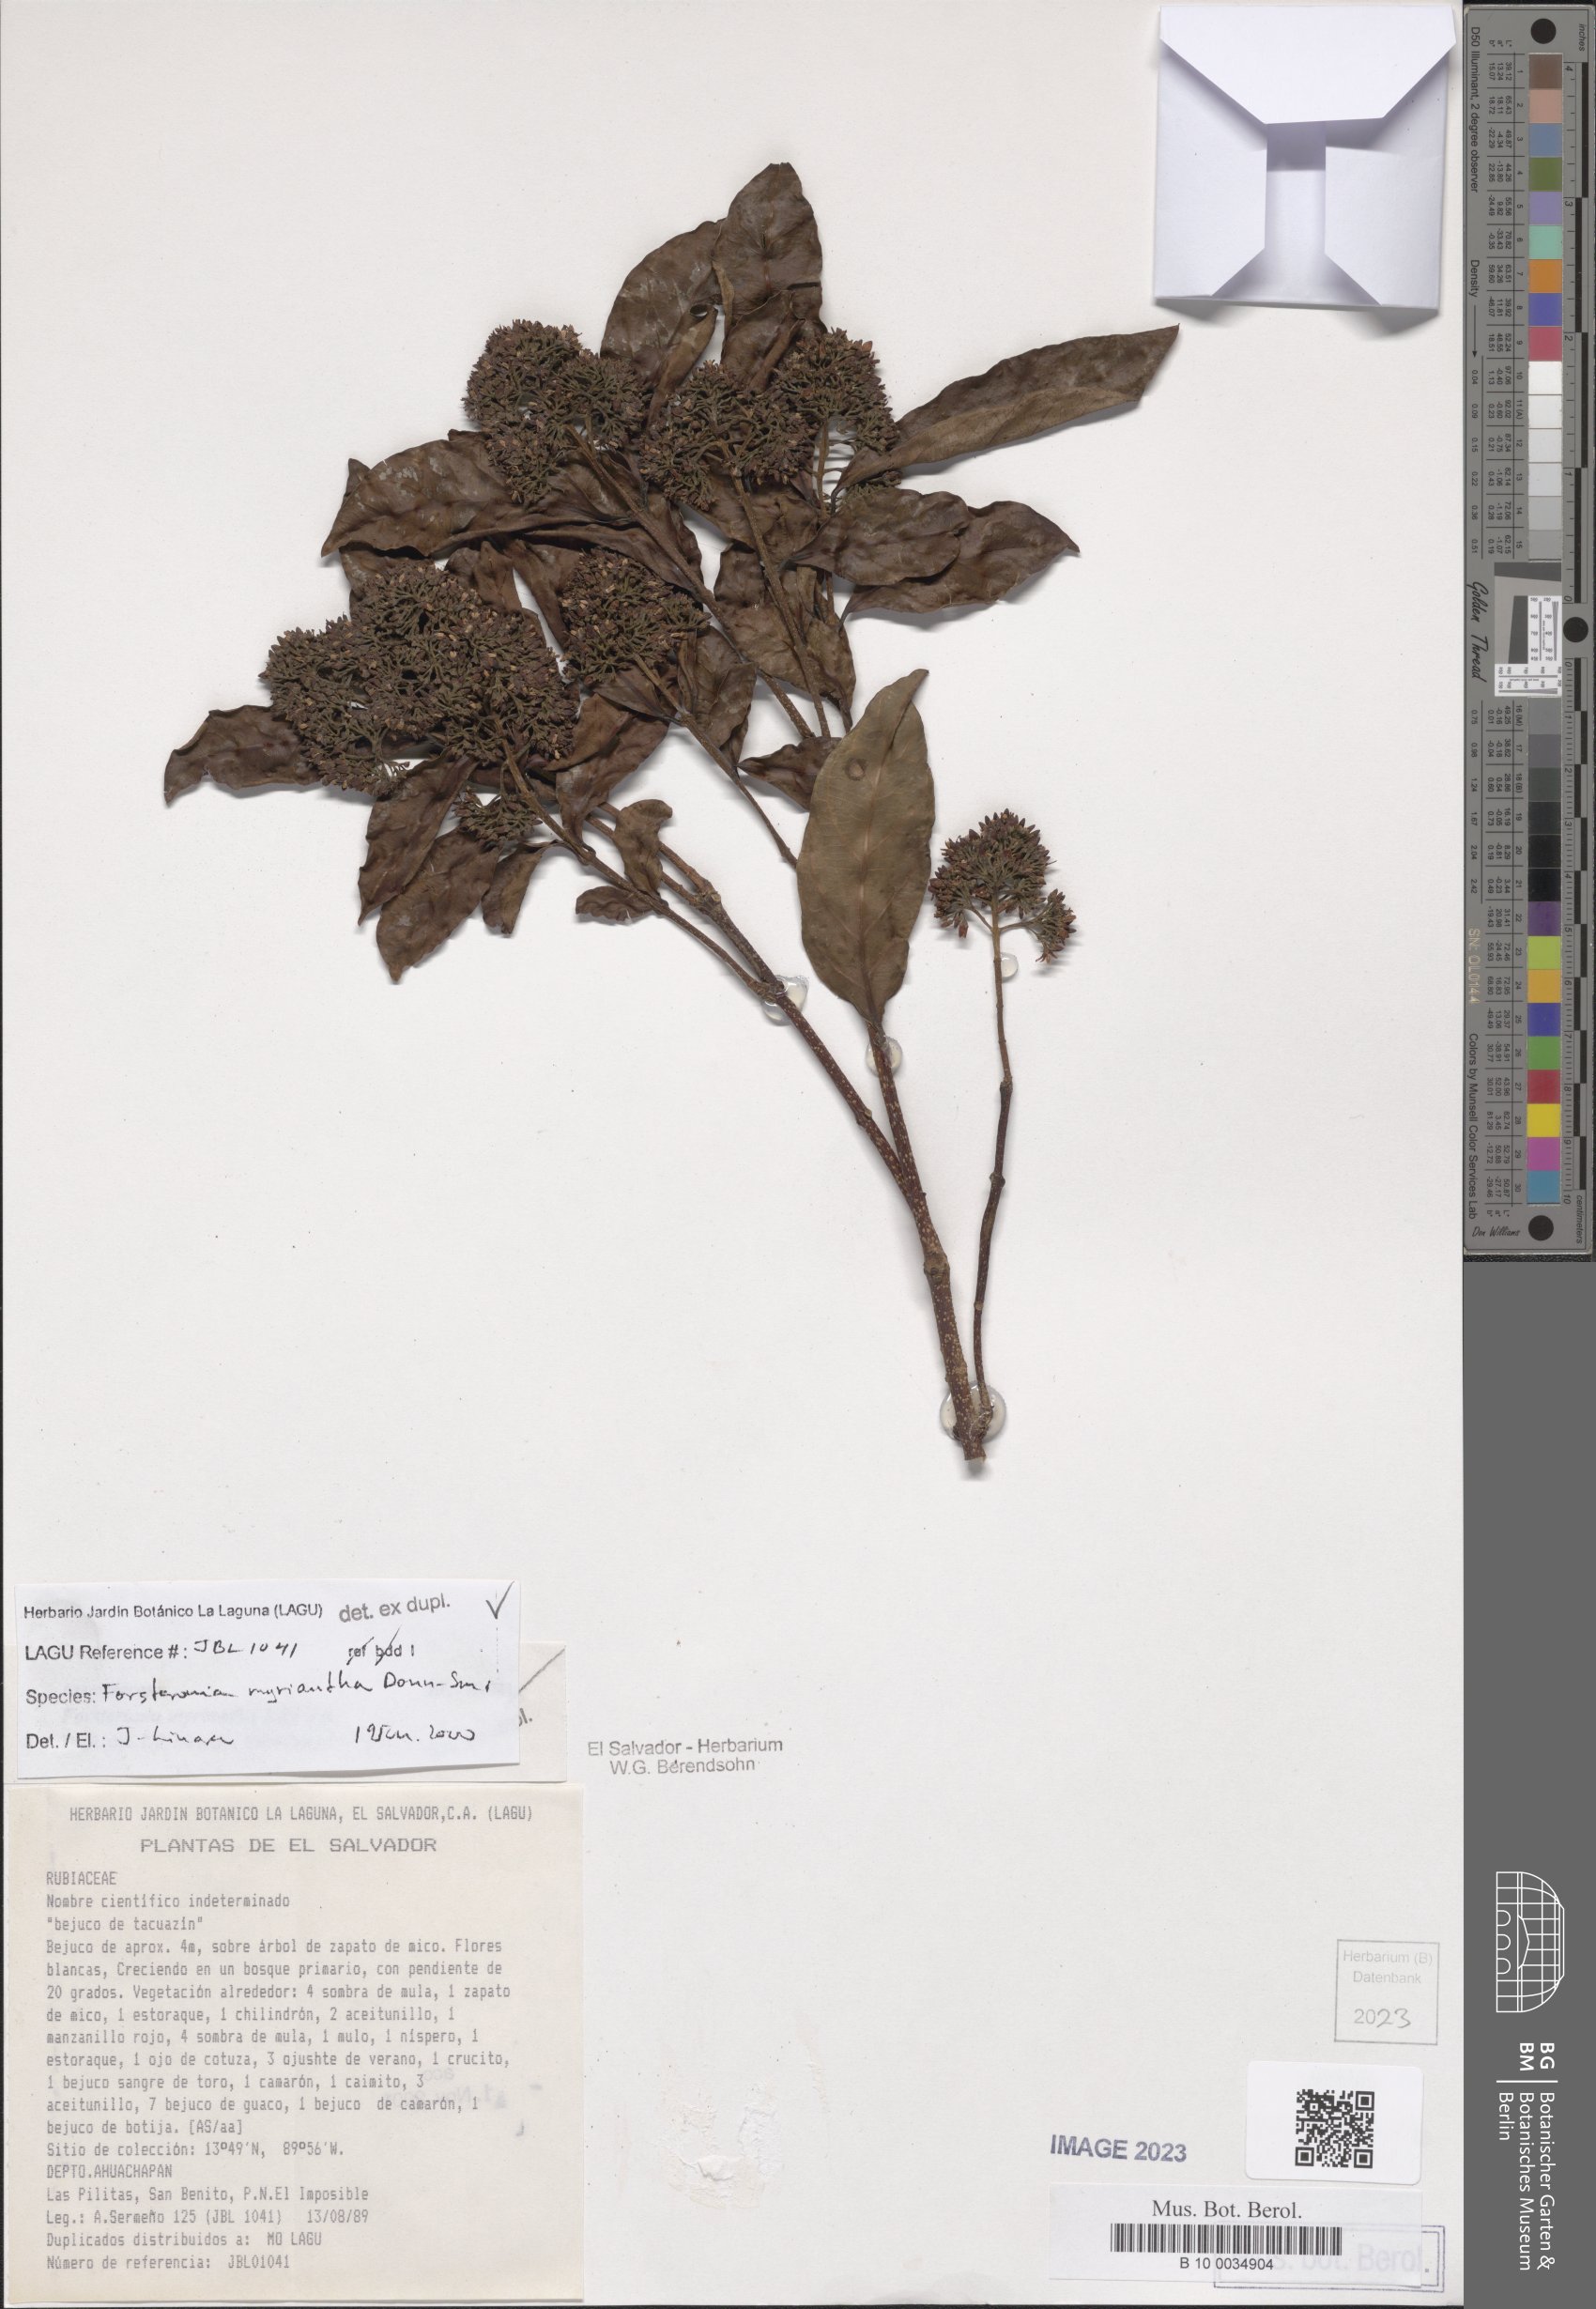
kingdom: Plantae
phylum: Tracheophyta
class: Magnoliopsida
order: Gentianales
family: Apocynaceae
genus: Forsteronia
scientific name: Forsteronia myriantha
